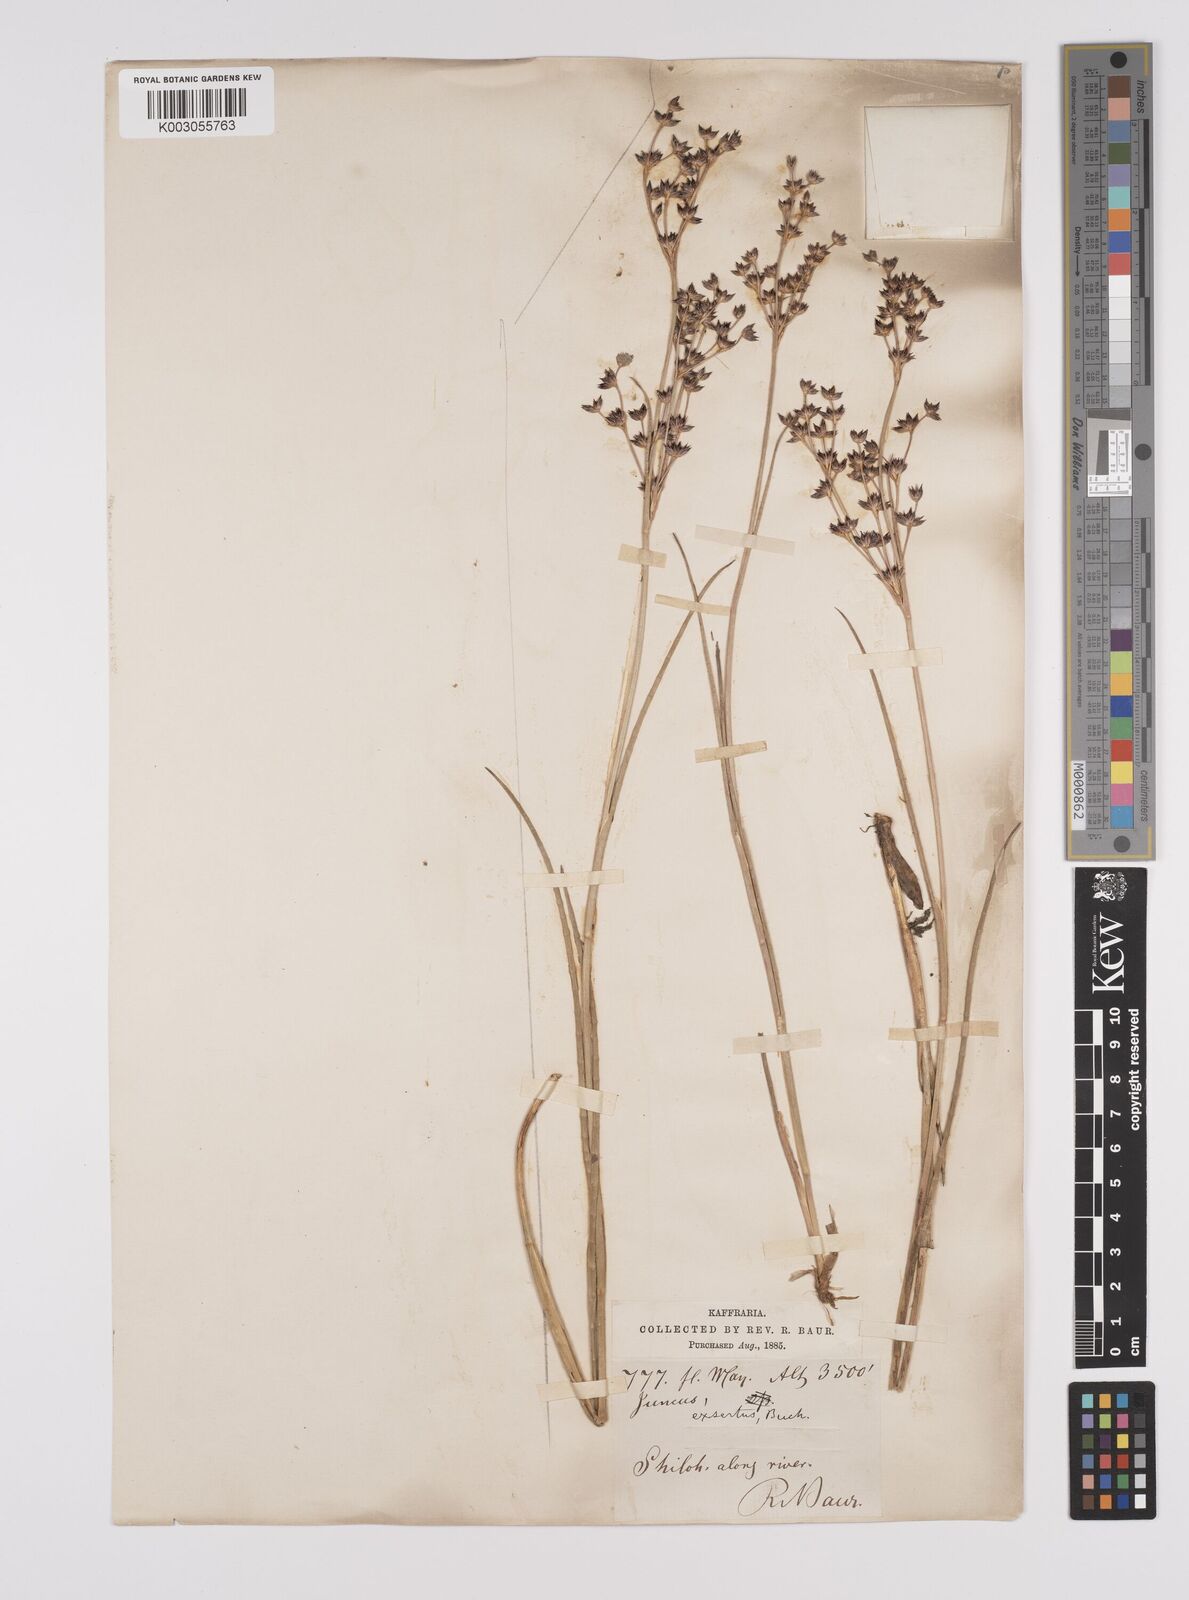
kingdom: Plantae
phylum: Tracheophyta
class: Liliopsida
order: Poales
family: Juncaceae
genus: Juncus
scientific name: Juncus exsertus
